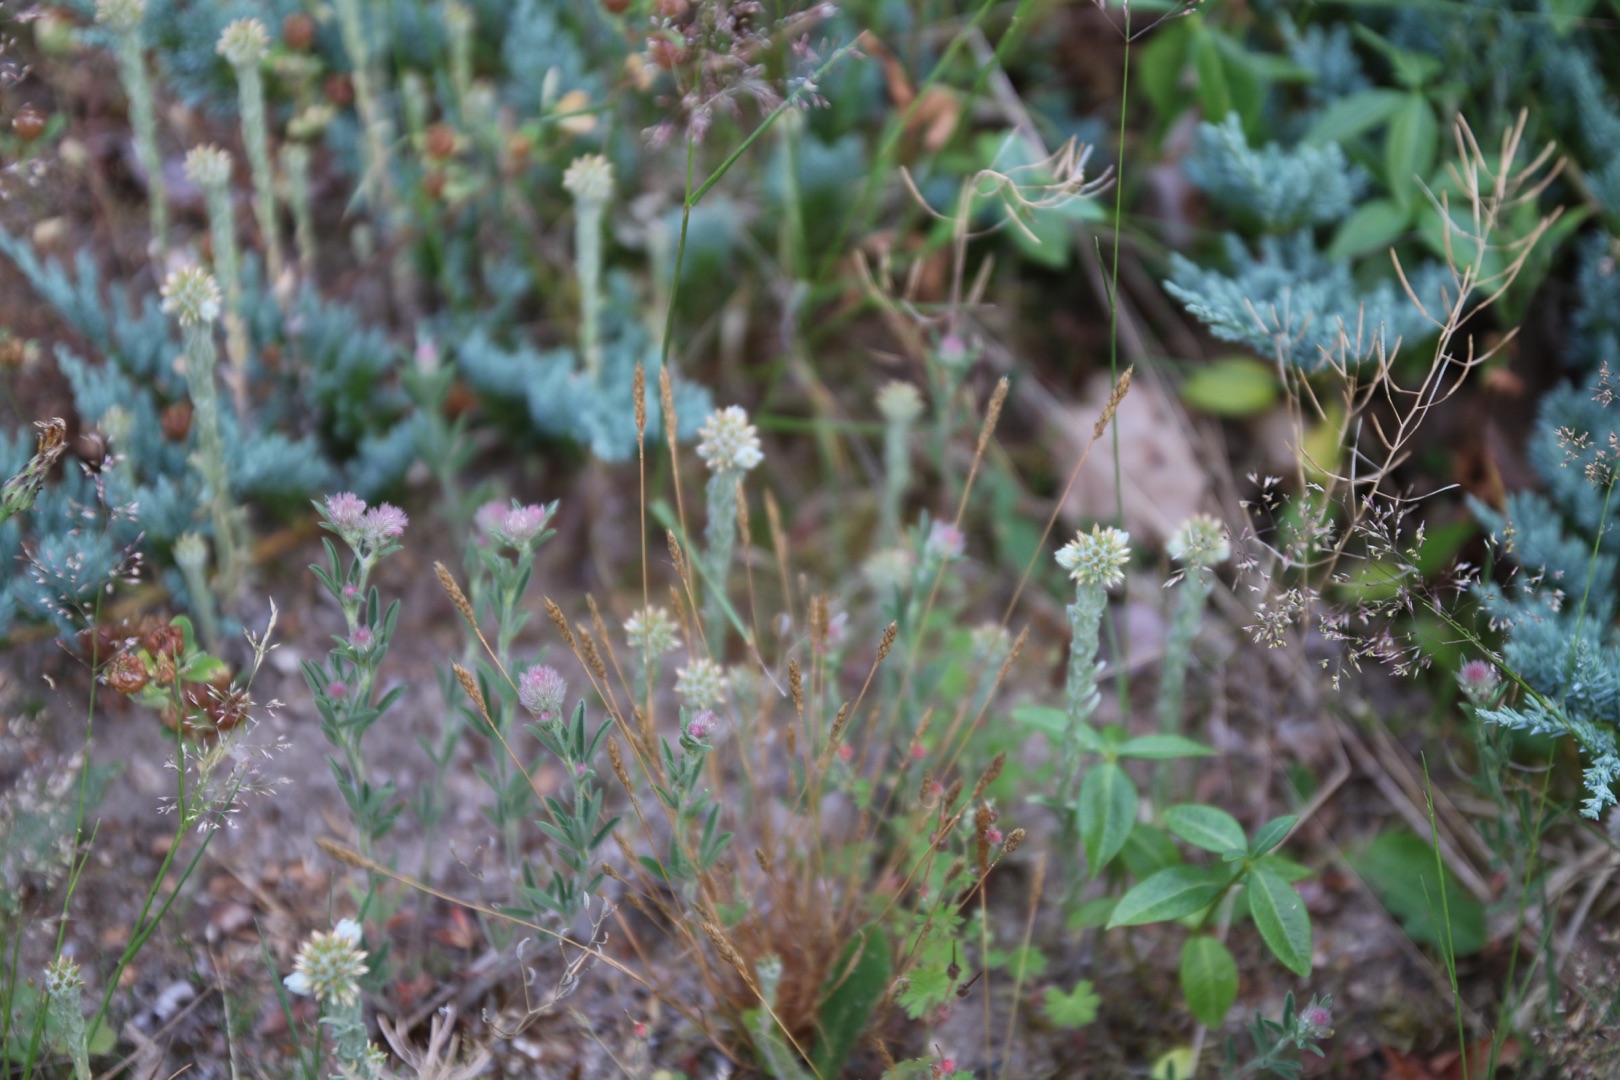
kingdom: Plantae
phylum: Tracheophyta
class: Magnoliopsida
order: Asterales
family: Asteraceae
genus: Filago
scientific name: Filago germanica
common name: Kugle-museurt
